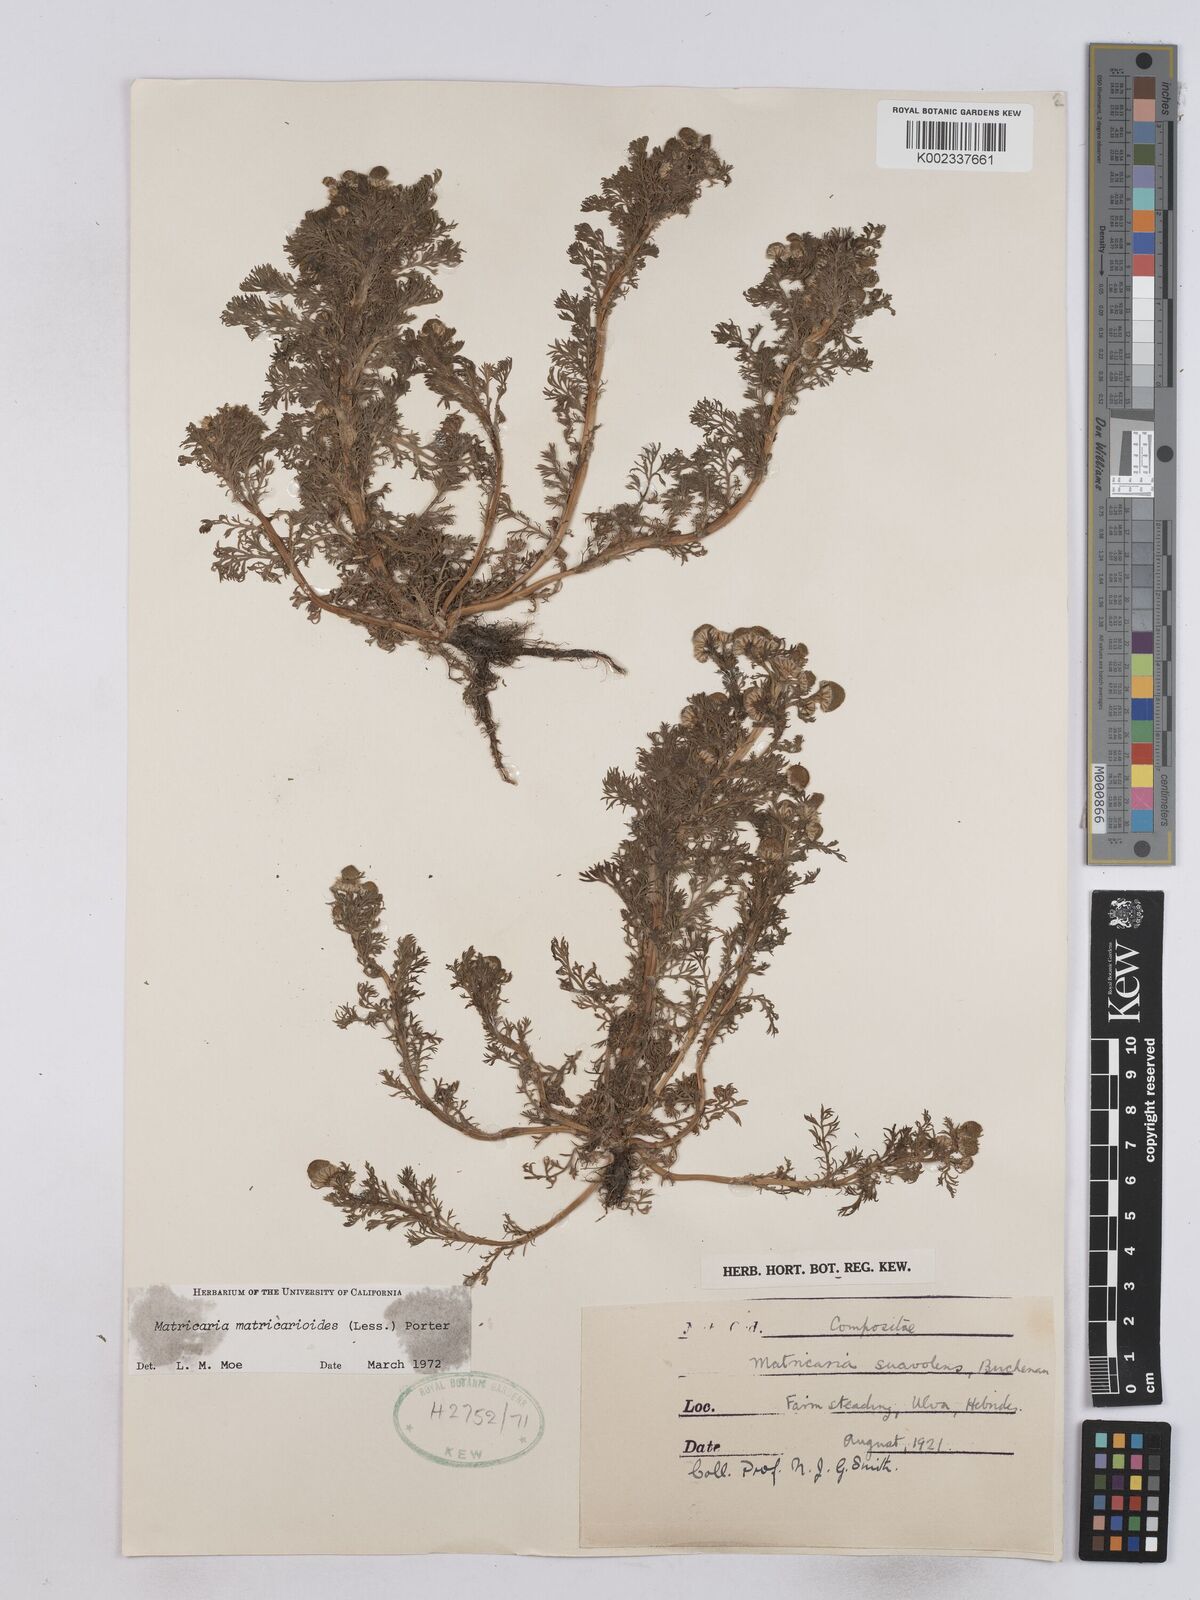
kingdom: Plantae
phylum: Tracheophyta
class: Magnoliopsida
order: Asterales
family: Asteraceae
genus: Matricaria
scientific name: Matricaria discoidea
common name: Disc mayweed
